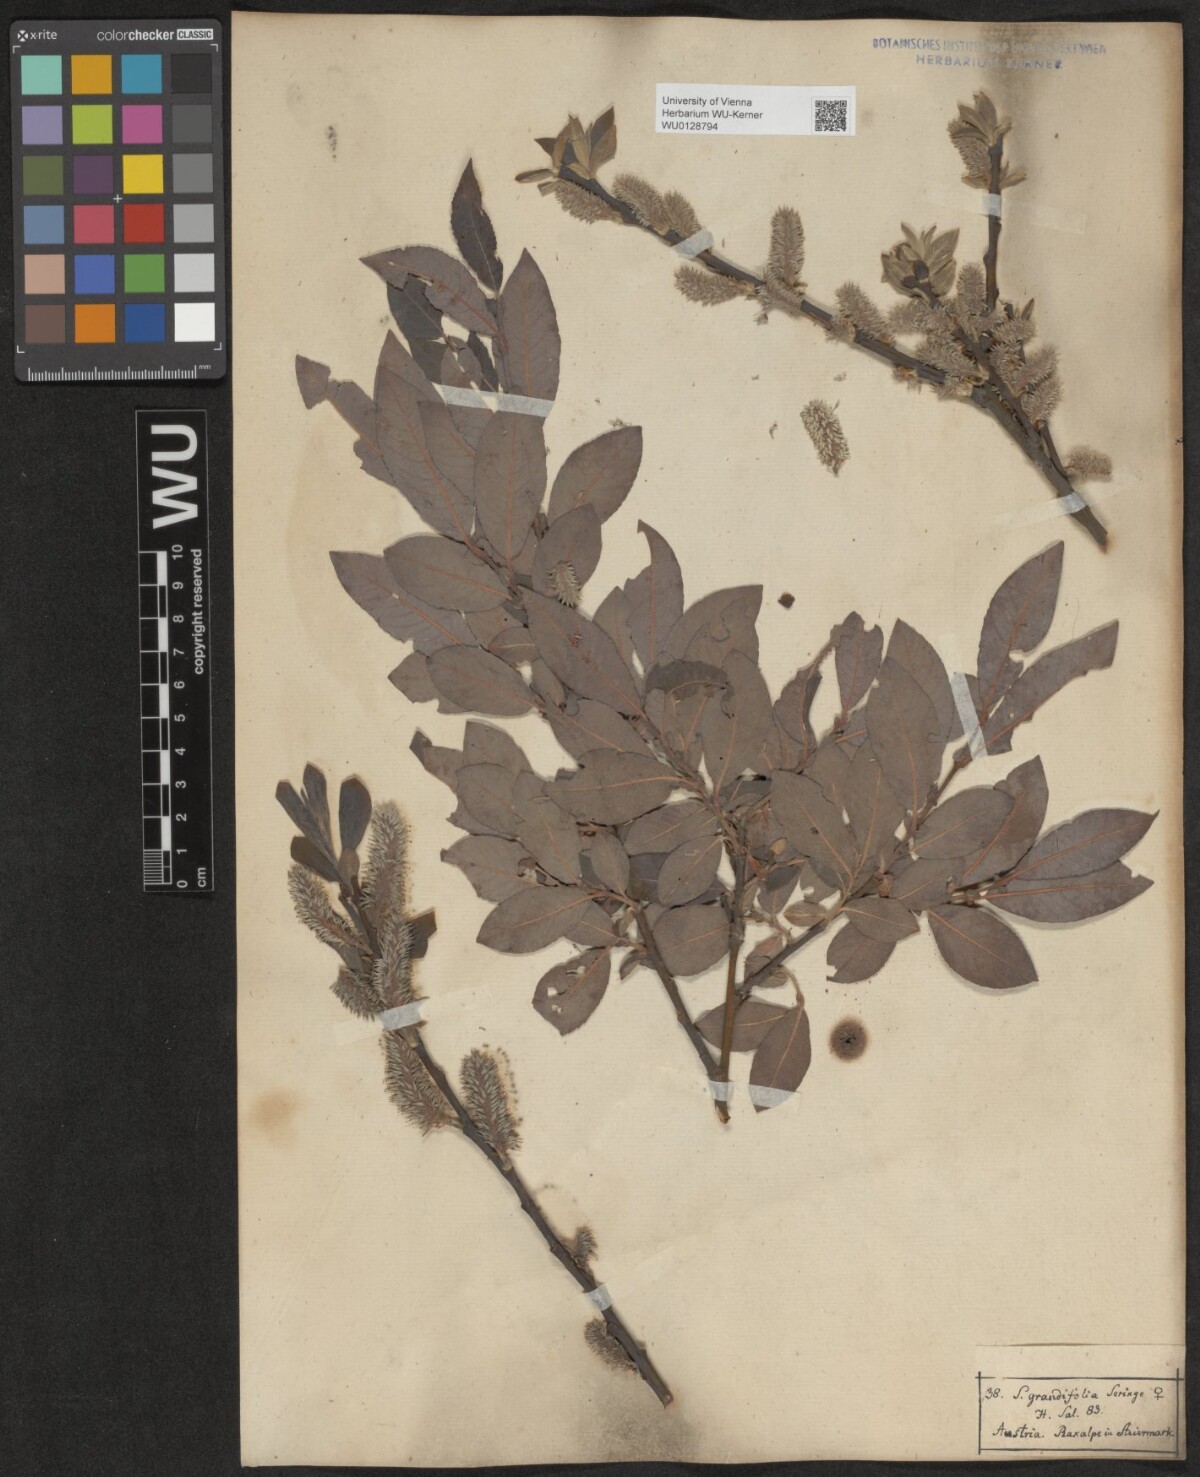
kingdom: Plantae
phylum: Tracheophyta
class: Magnoliopsida
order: Malpighiales
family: Salicaceae
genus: Salix
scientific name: Salix appendiculata
